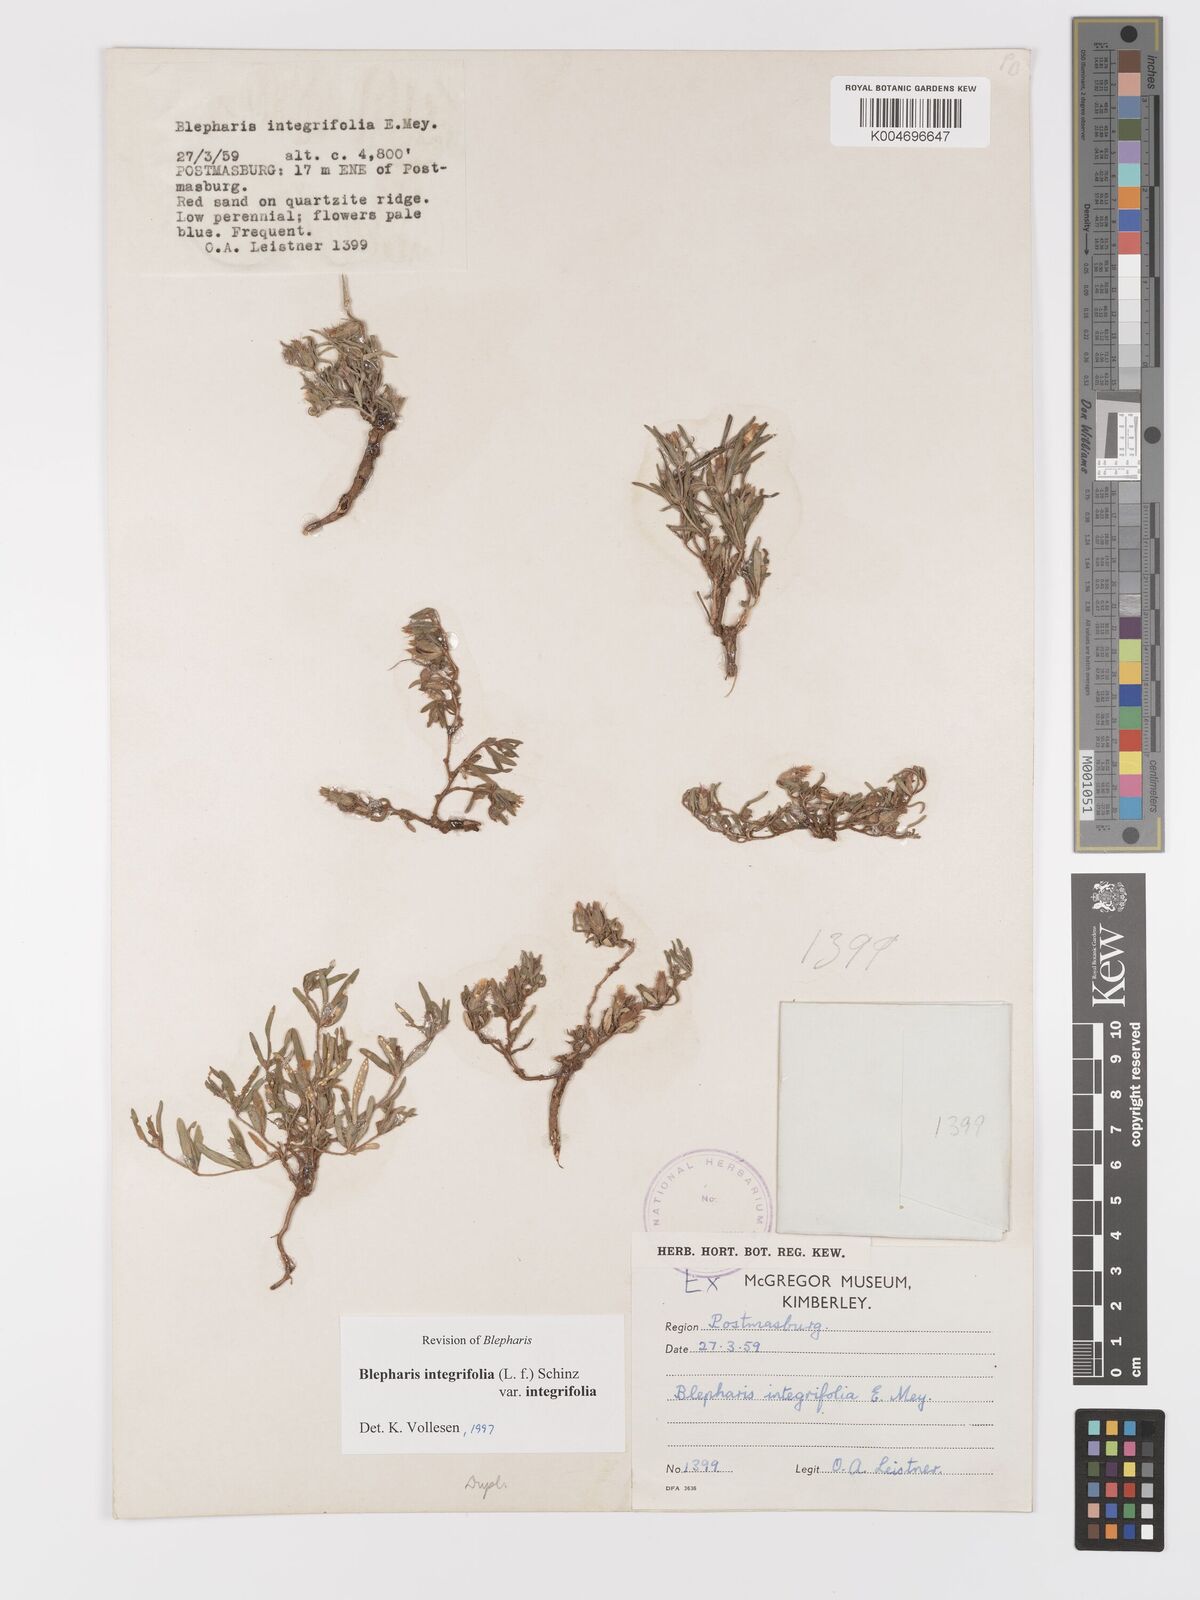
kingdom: Plantae
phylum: Tracheophyta
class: Magnoliopsida
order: Lamiales
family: Acanthaceae
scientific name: Acanthaceae
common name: Acanthaceae
